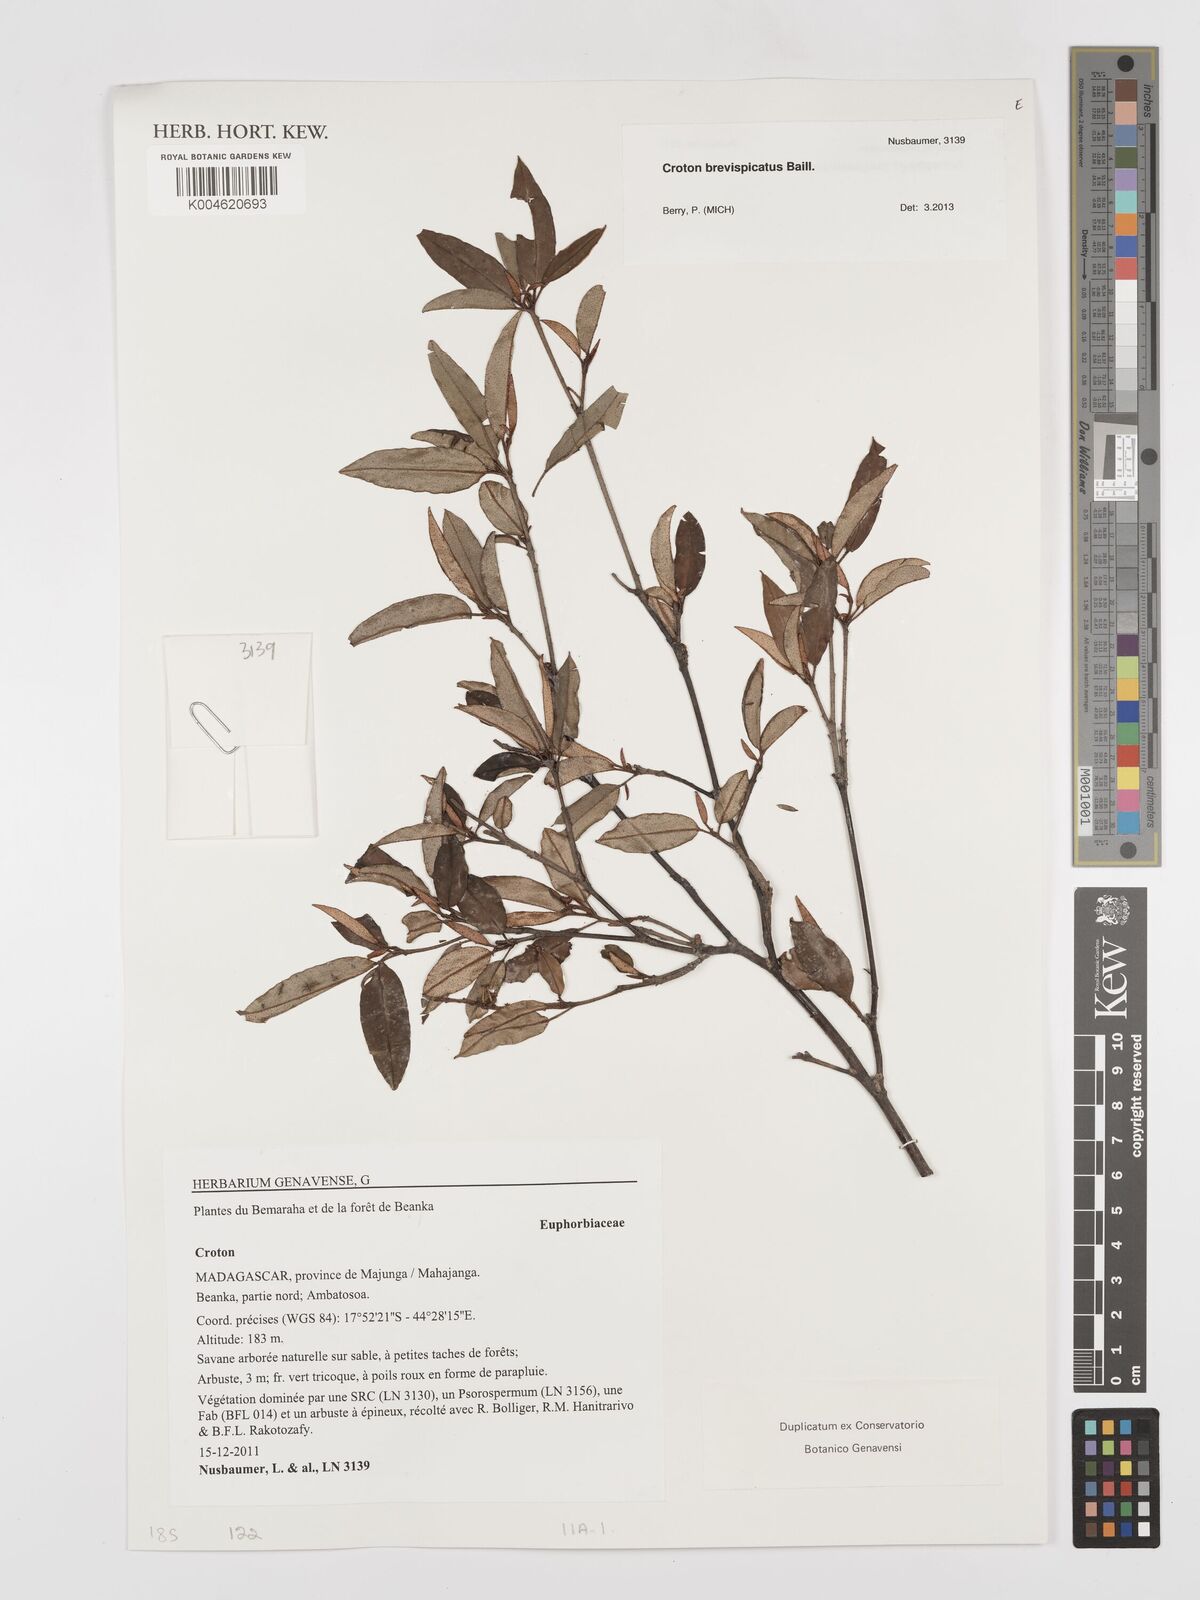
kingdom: Plantae
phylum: Tracheophyta
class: Magnoliopsida
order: Malpighiales
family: Euphorbiaceae
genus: Croton
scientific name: Croton
